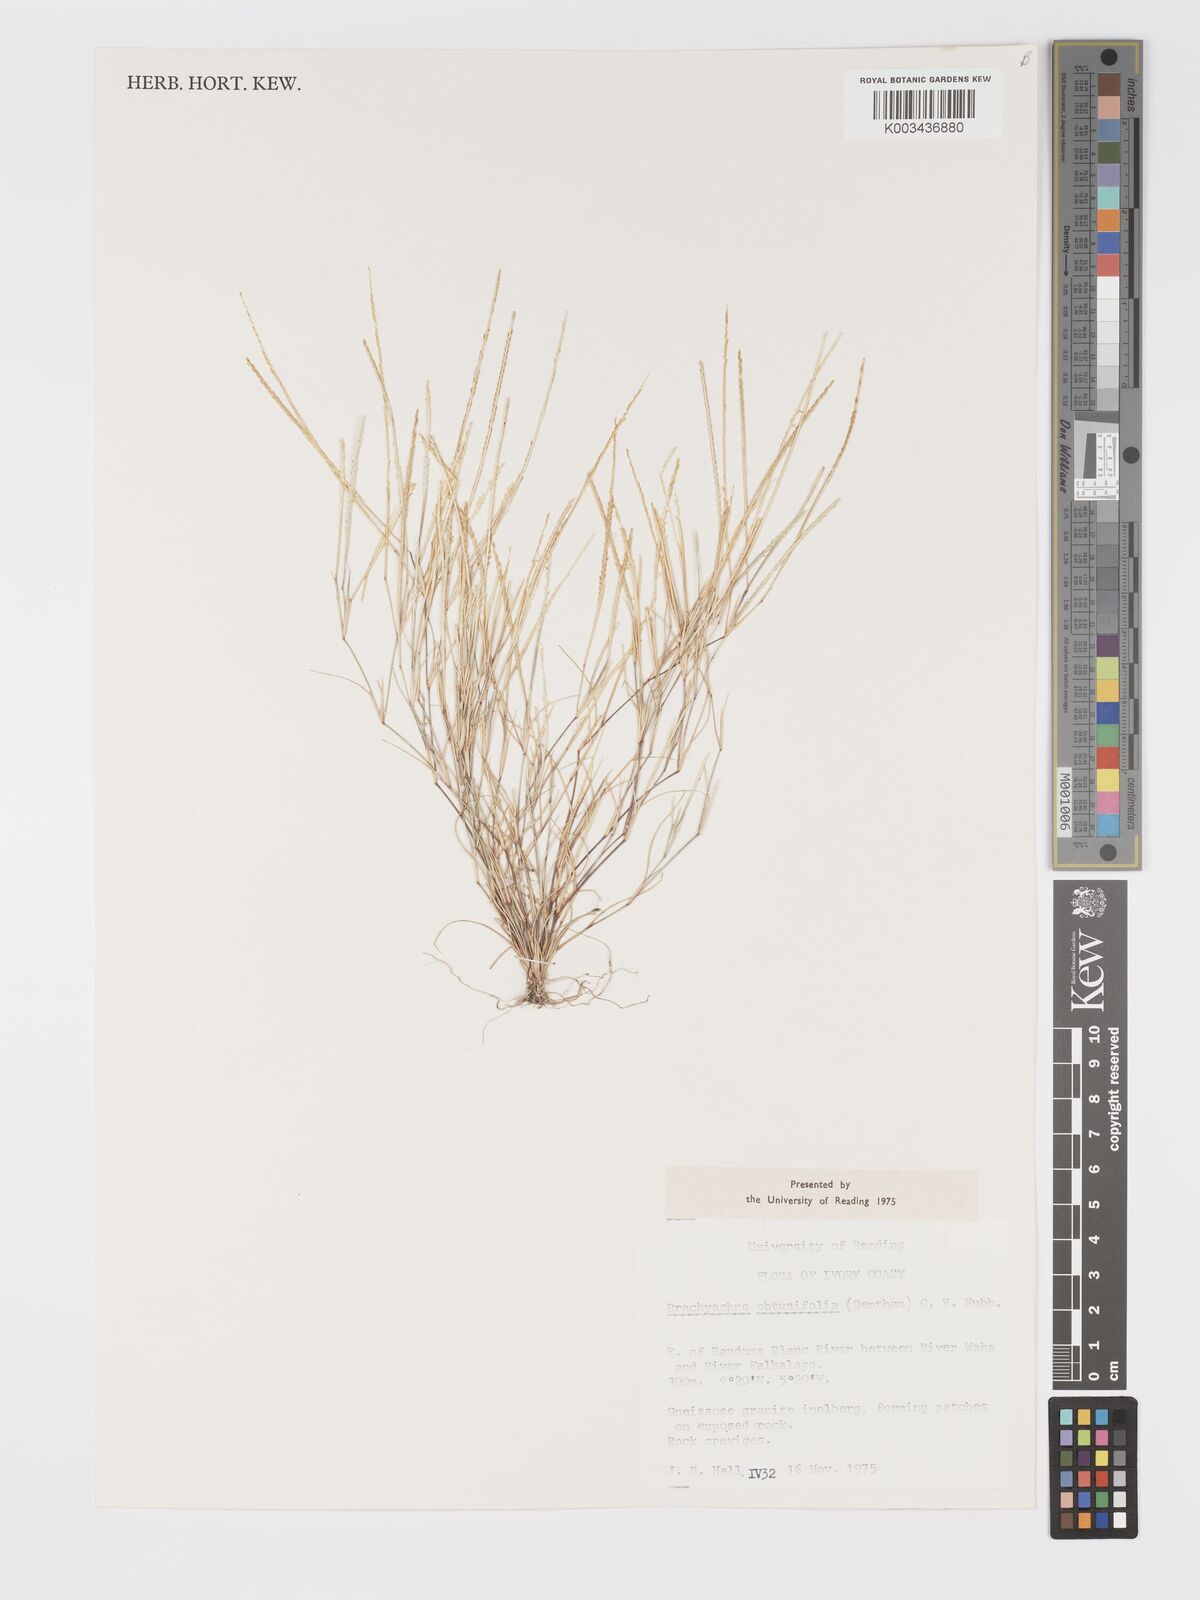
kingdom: Plantae
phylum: Tracheophyta
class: Liliopsida
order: Poales
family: Poaceae
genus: Micrachne
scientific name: Micrachne obtusiflora
